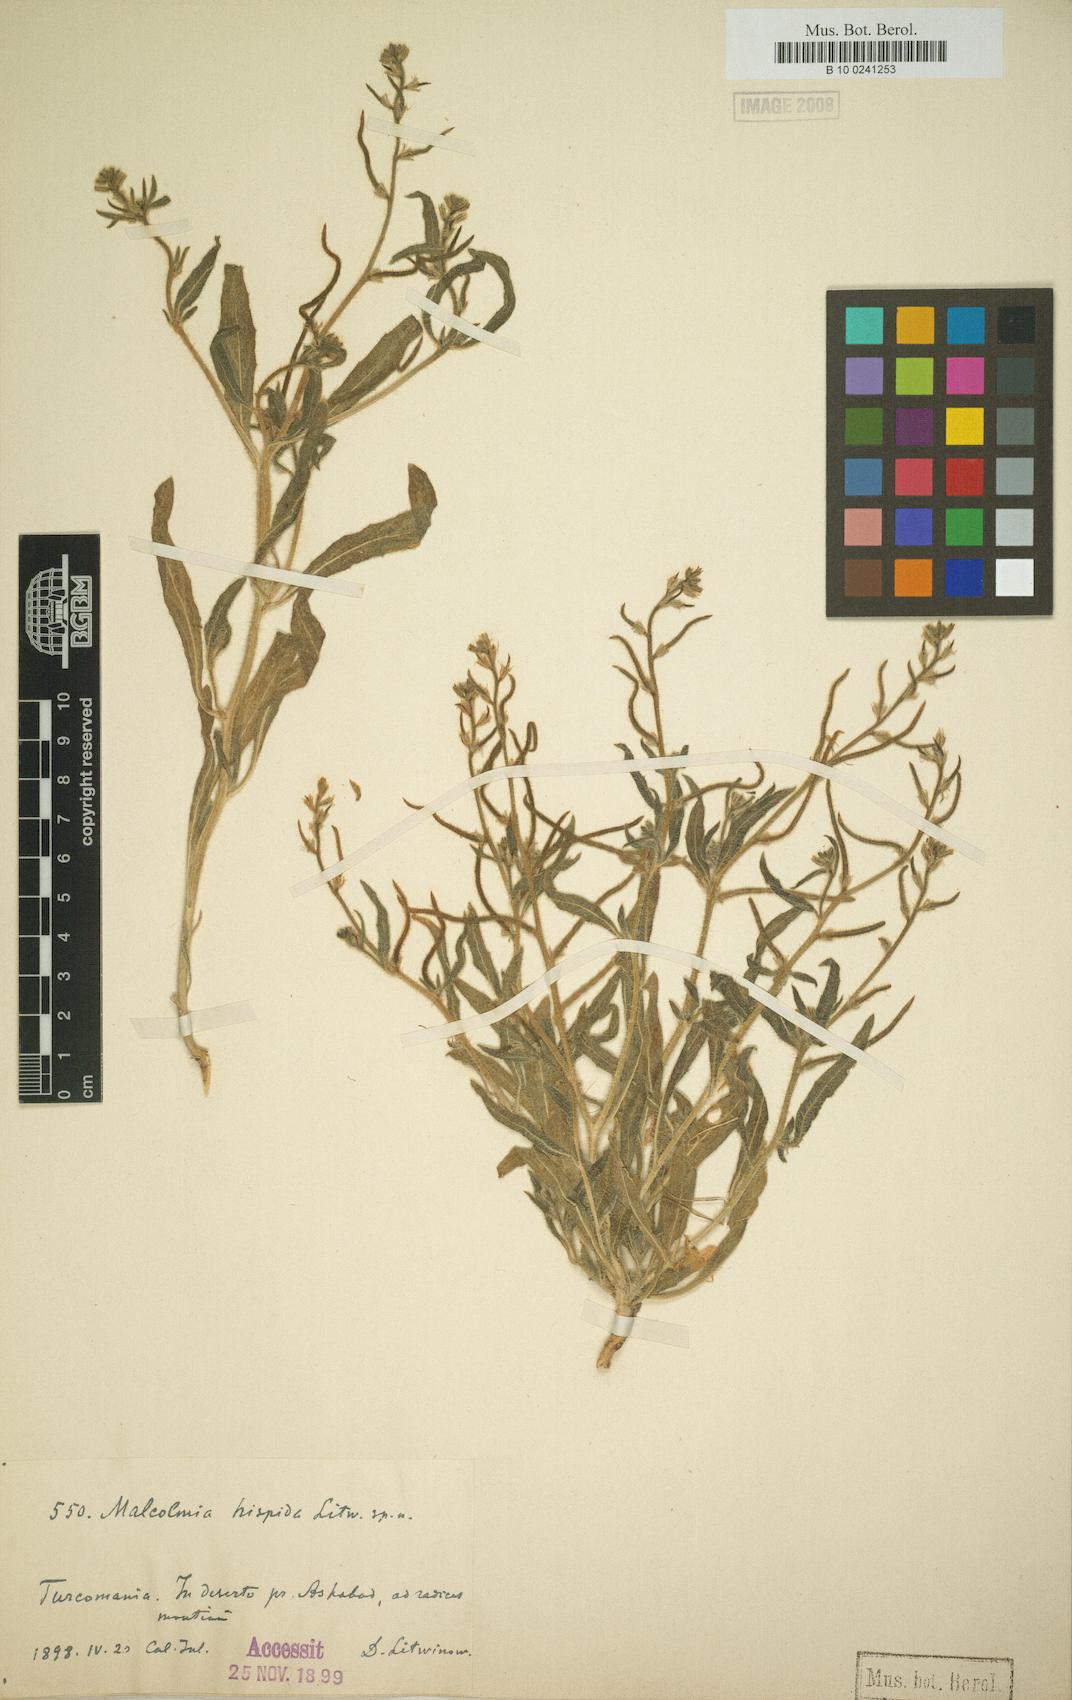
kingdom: Plantae
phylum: Tracheophyta
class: Magnoliopsida
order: Brassicales
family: Brassicaceae
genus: Strigosella
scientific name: Strigosella hispida
